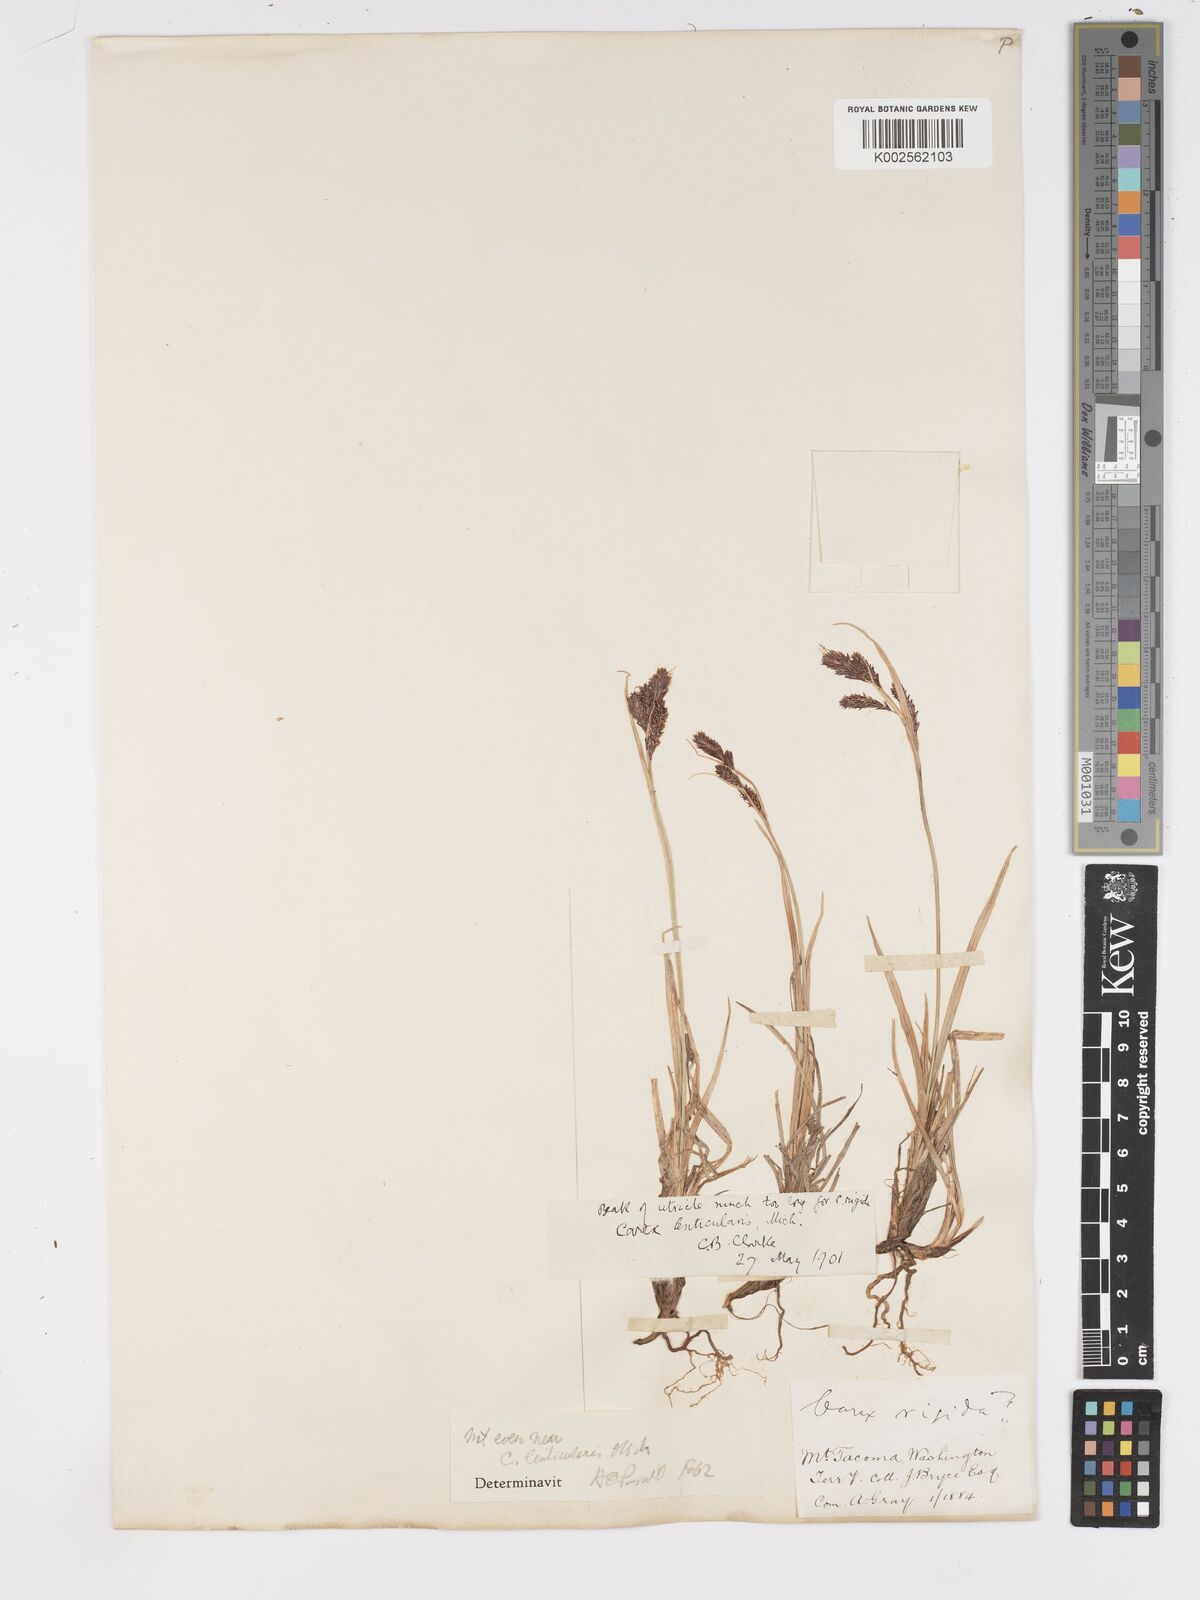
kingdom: Plantae
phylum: Tracheophyta
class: Liliopsida
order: Poales
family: Cyperaceae
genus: Carex
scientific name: Carex lenticularis
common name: Lakeshore sedge
